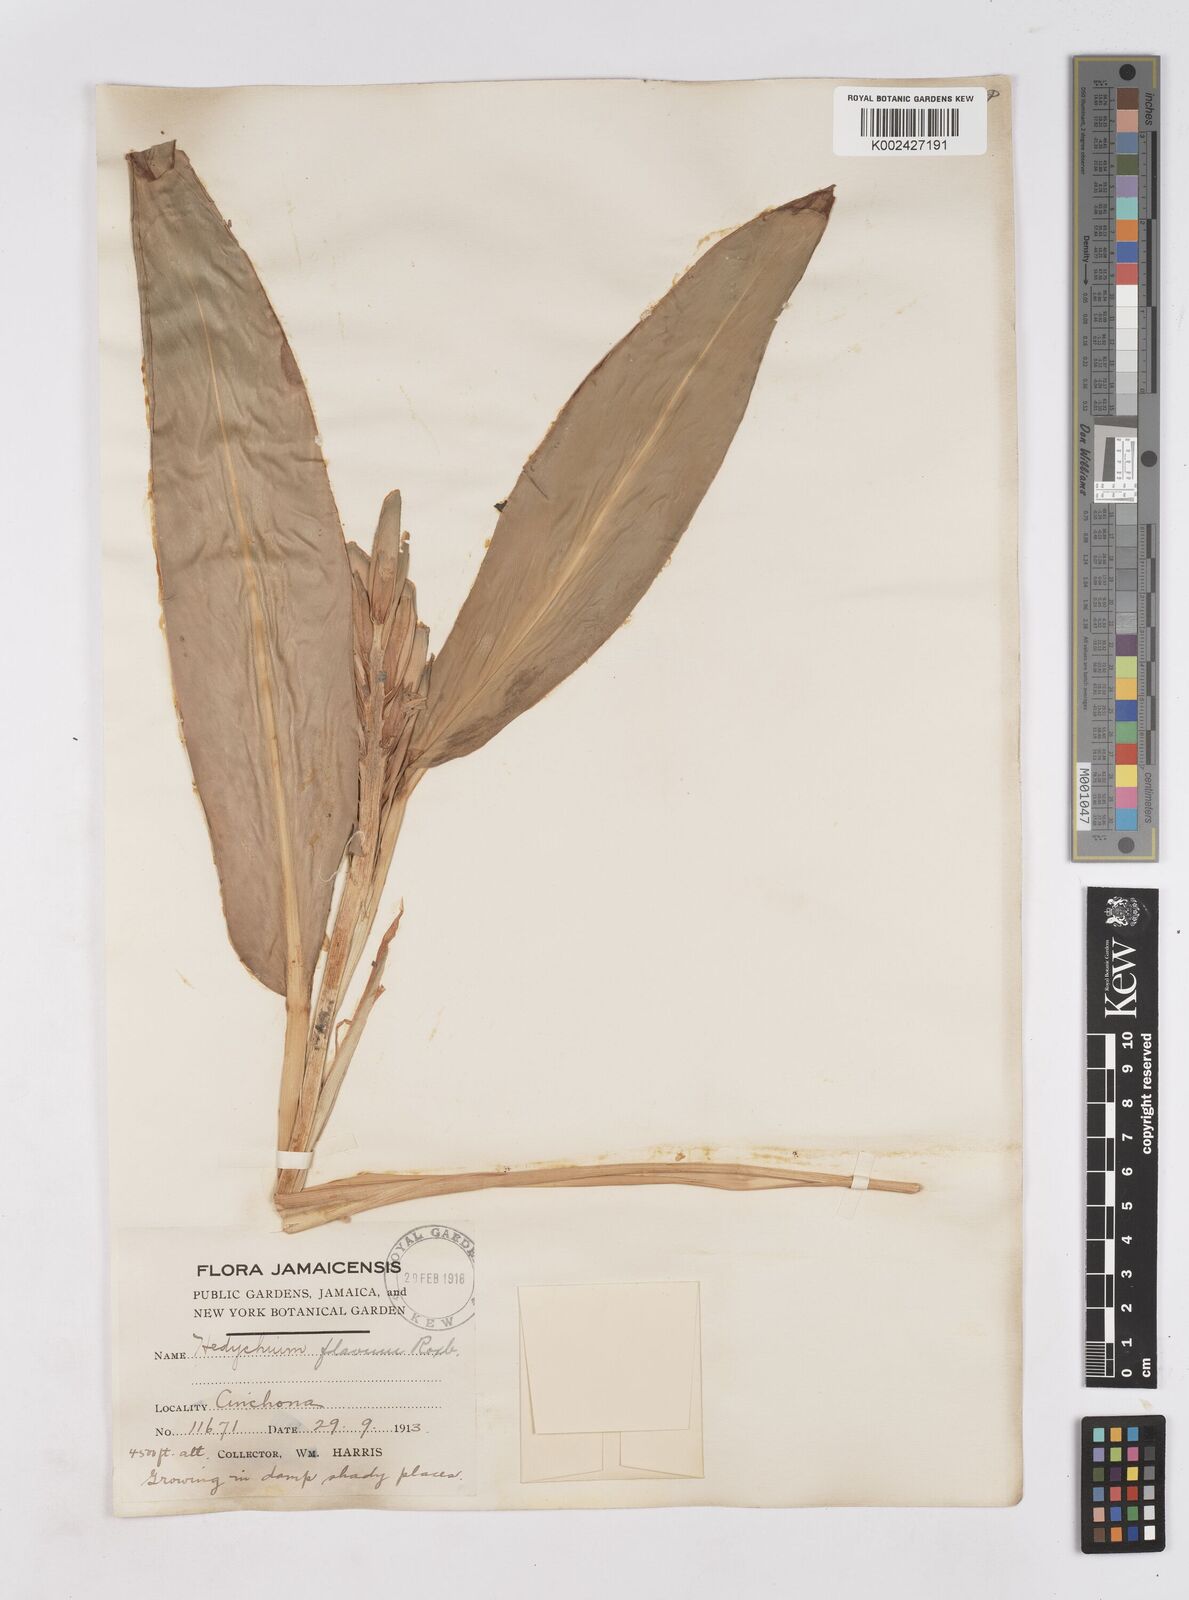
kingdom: Plantae
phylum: Tracheophyta
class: Liliopsida
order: Zingiberales
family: Zingiberaceae
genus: Hedychium
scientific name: Hedychium flavum
